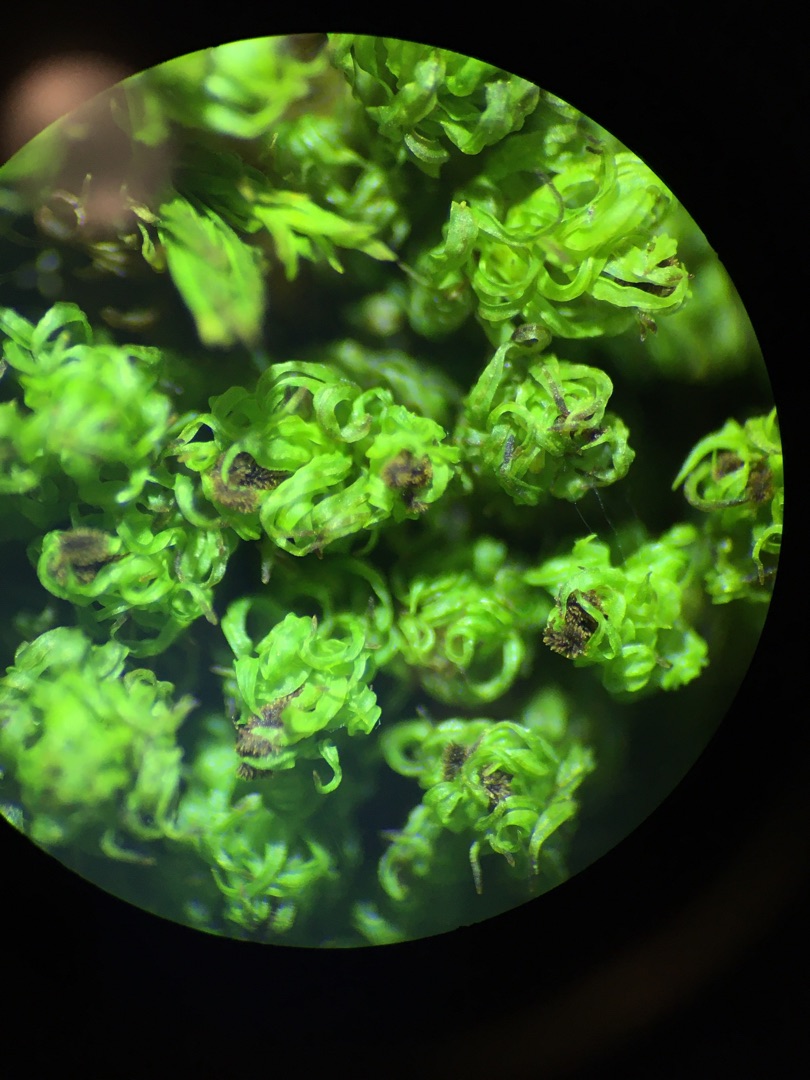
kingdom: Plantae
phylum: Bryophyta
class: Bryopsida
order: Orthotrichales
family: Orthotrichaceae
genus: Plenogemma
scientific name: Plenogemma phyllantha
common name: Stor låddenhætte
